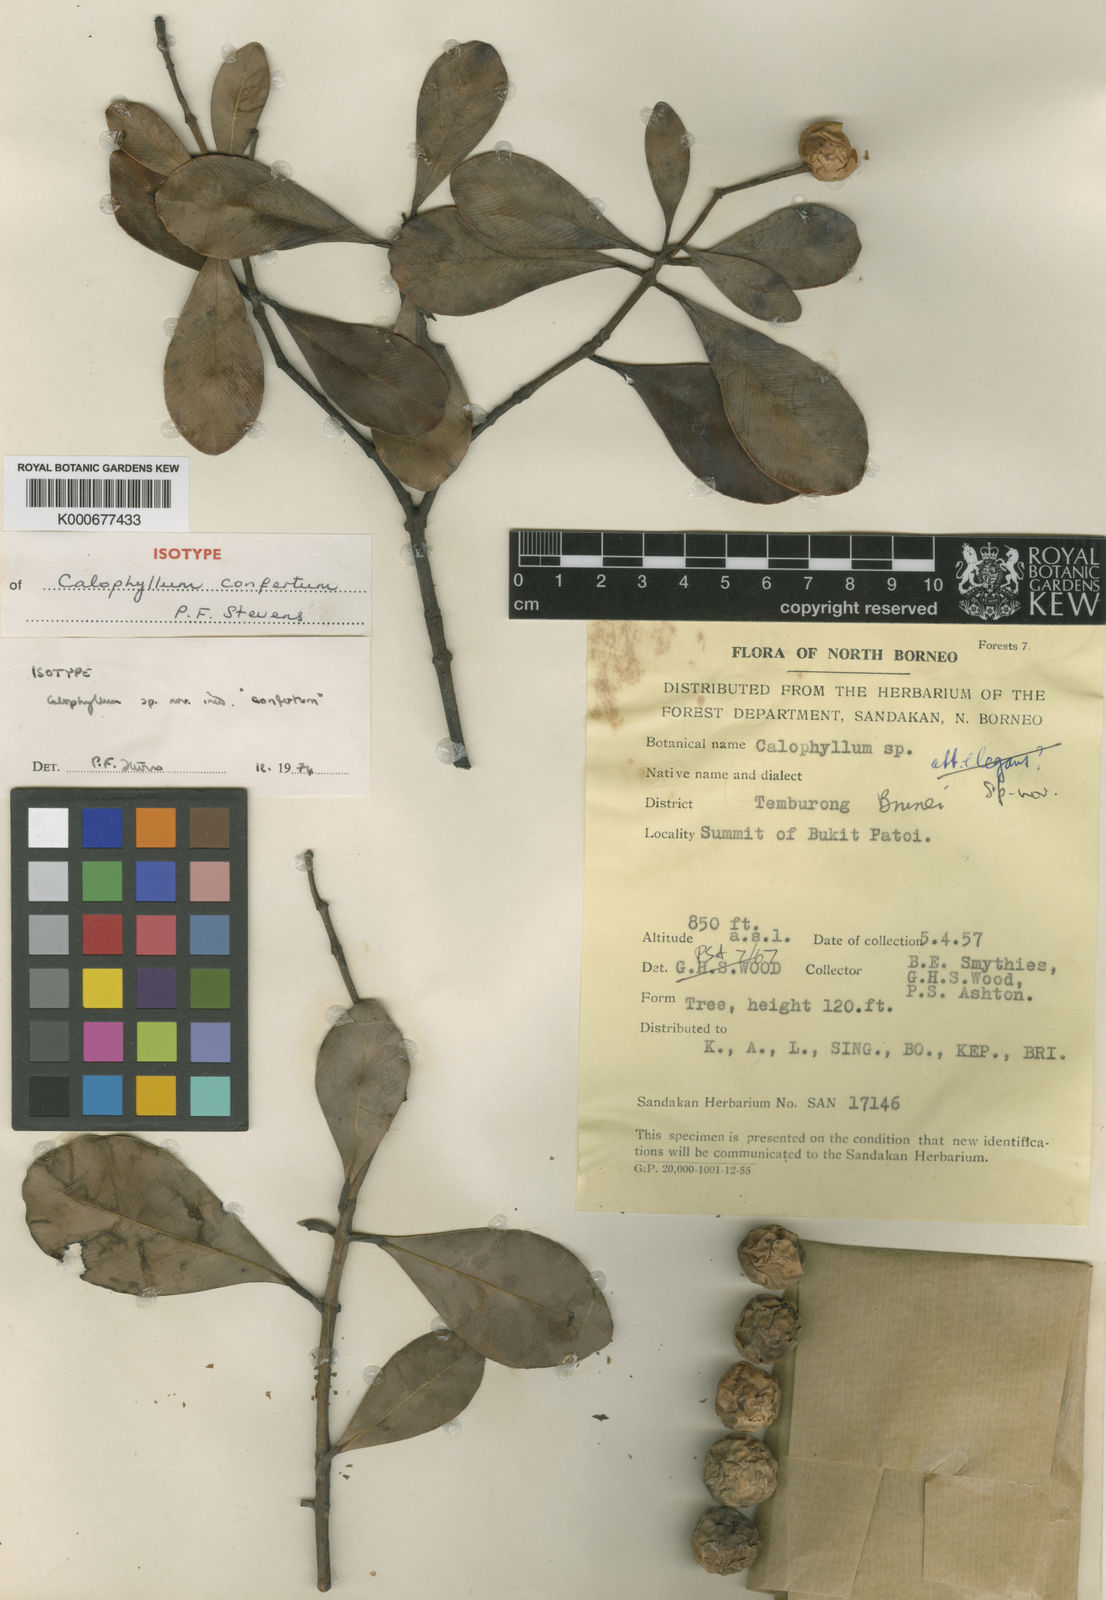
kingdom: Plantae
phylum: Tracheophyta
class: Magnoliopsida
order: Malpighiales
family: Calophyllaceae
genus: Calophyllum
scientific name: Calophyllum confertum
